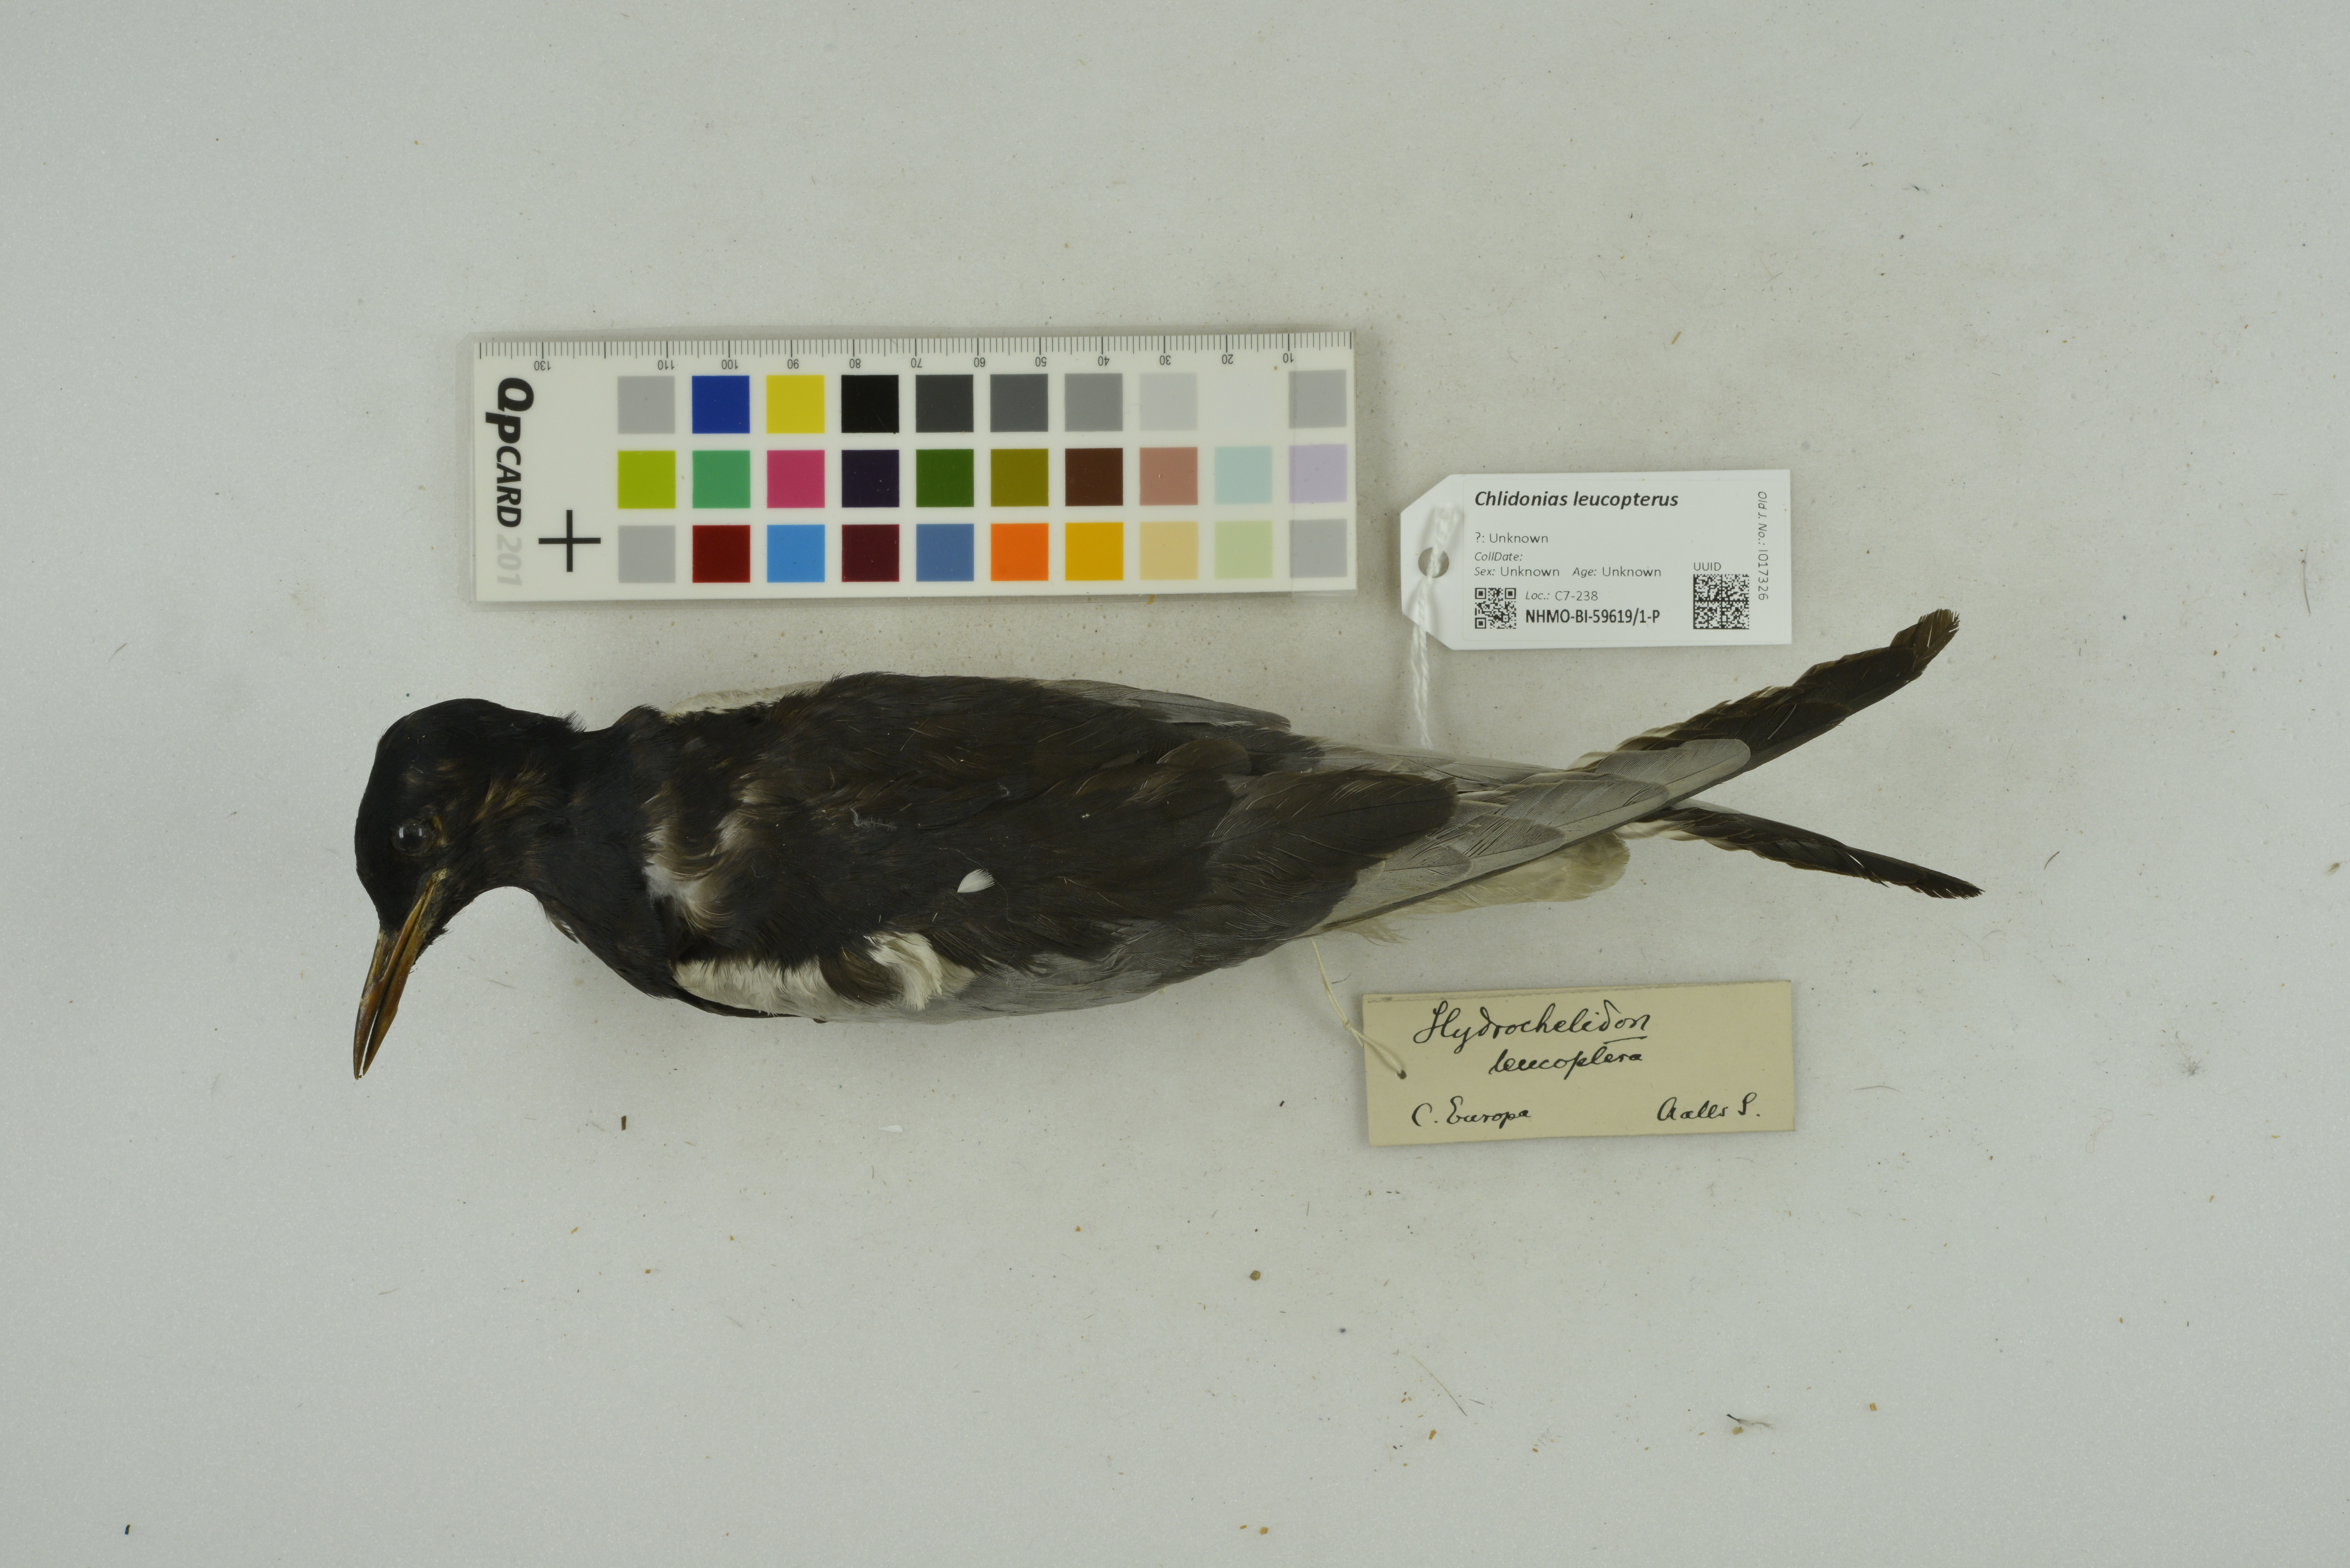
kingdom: Animalia
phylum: Chordata
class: Aves
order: Charadriiformes
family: Laridae
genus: Chlidonias
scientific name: Chlidonias leucopterus
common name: White-winged tern
